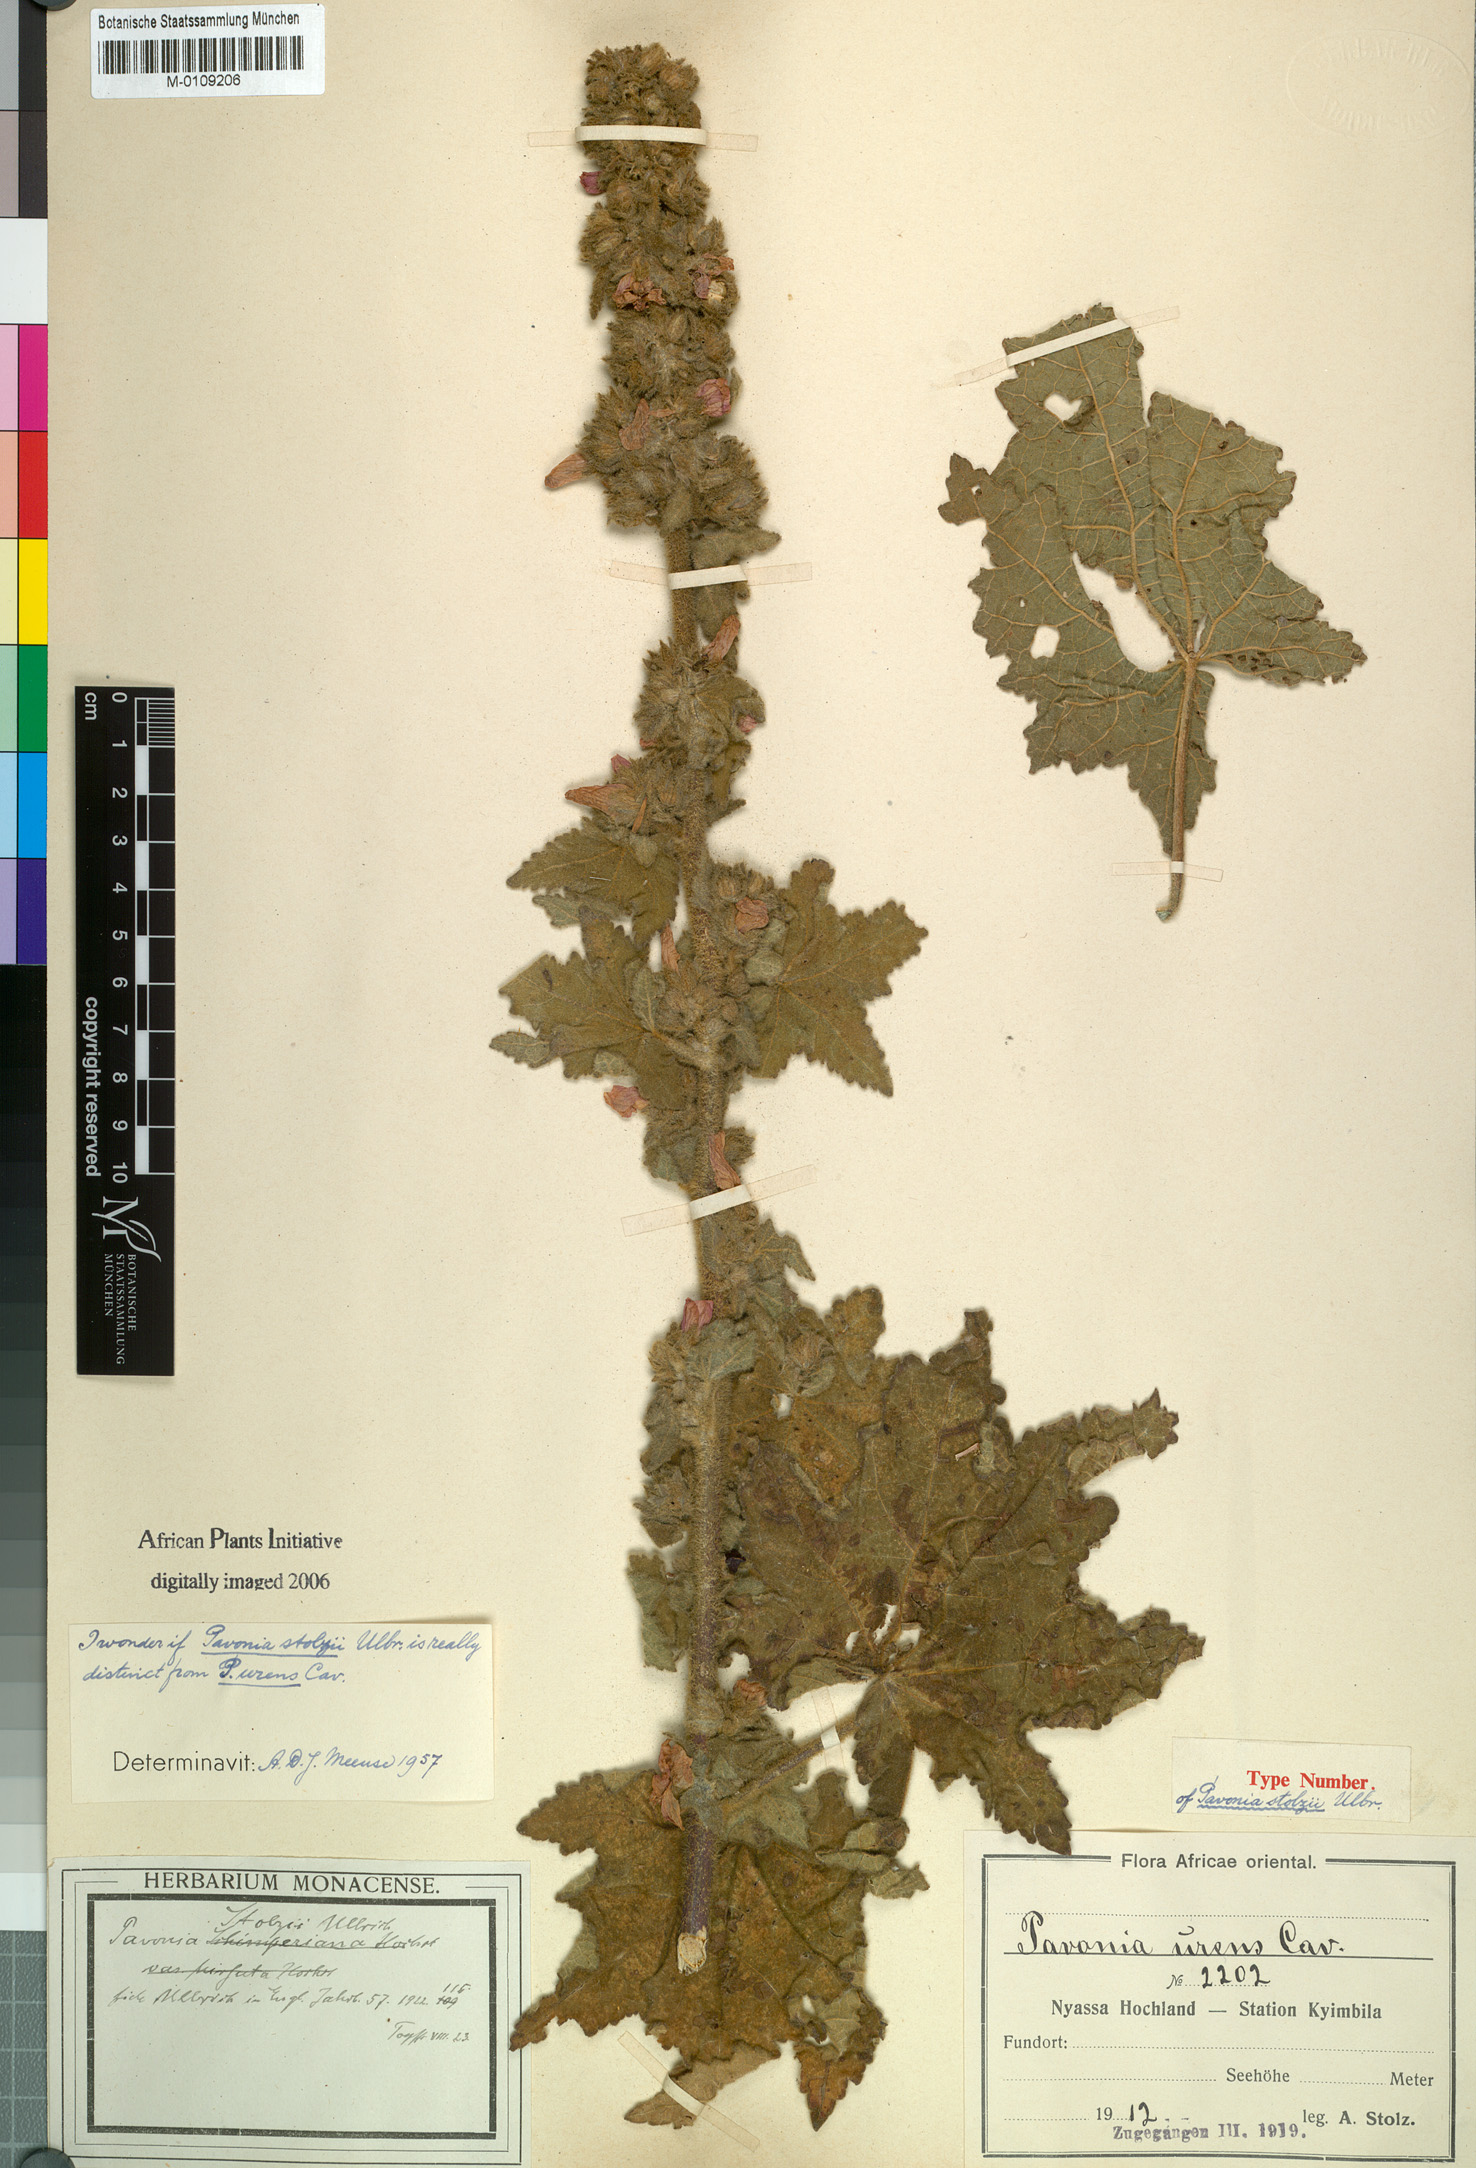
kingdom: Plantae
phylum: Tracheophyta
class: Magnoliopsida
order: Malvales
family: Malvaceae
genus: Pavonia
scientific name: Pavonia urens
